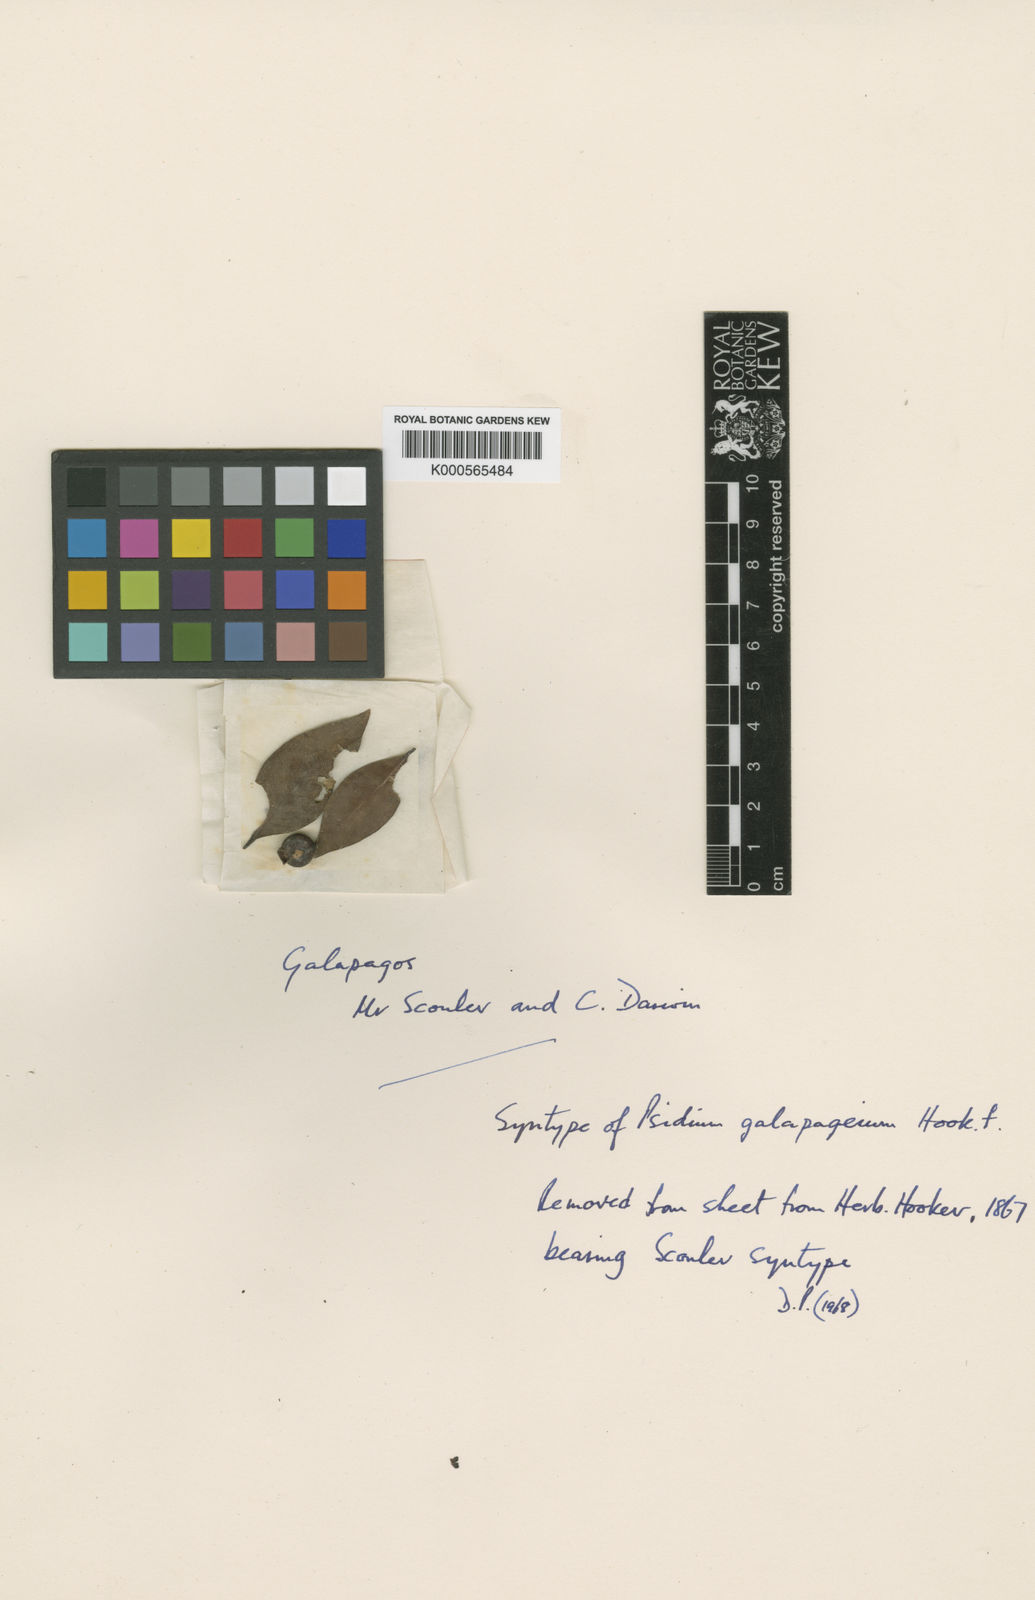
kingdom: Plantae
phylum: Tracheophyta
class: Magnoliopsida
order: Myrtales
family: Myrtaceae
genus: Psidium
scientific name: Psidium galapagaeum
